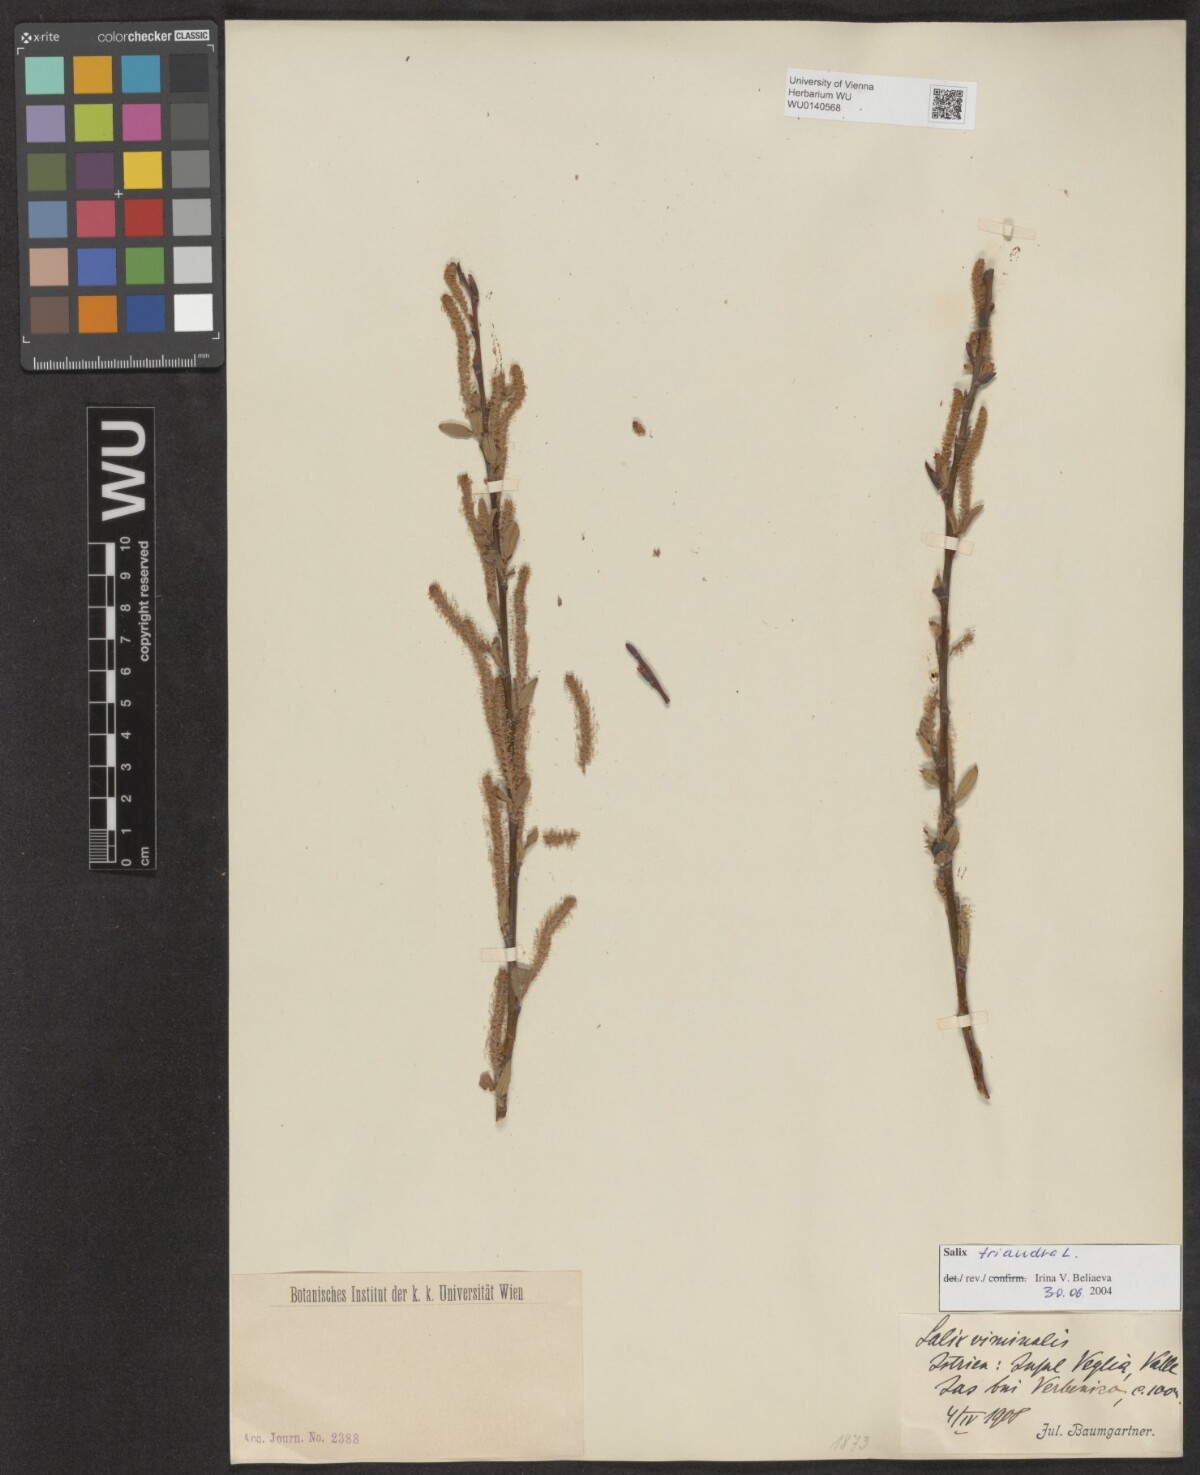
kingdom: Plantae
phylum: Tracheophyta
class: Magnoliopsida
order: Malpighiales
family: Salicaceae
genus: Salix
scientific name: Salix triandra
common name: Almond willow
